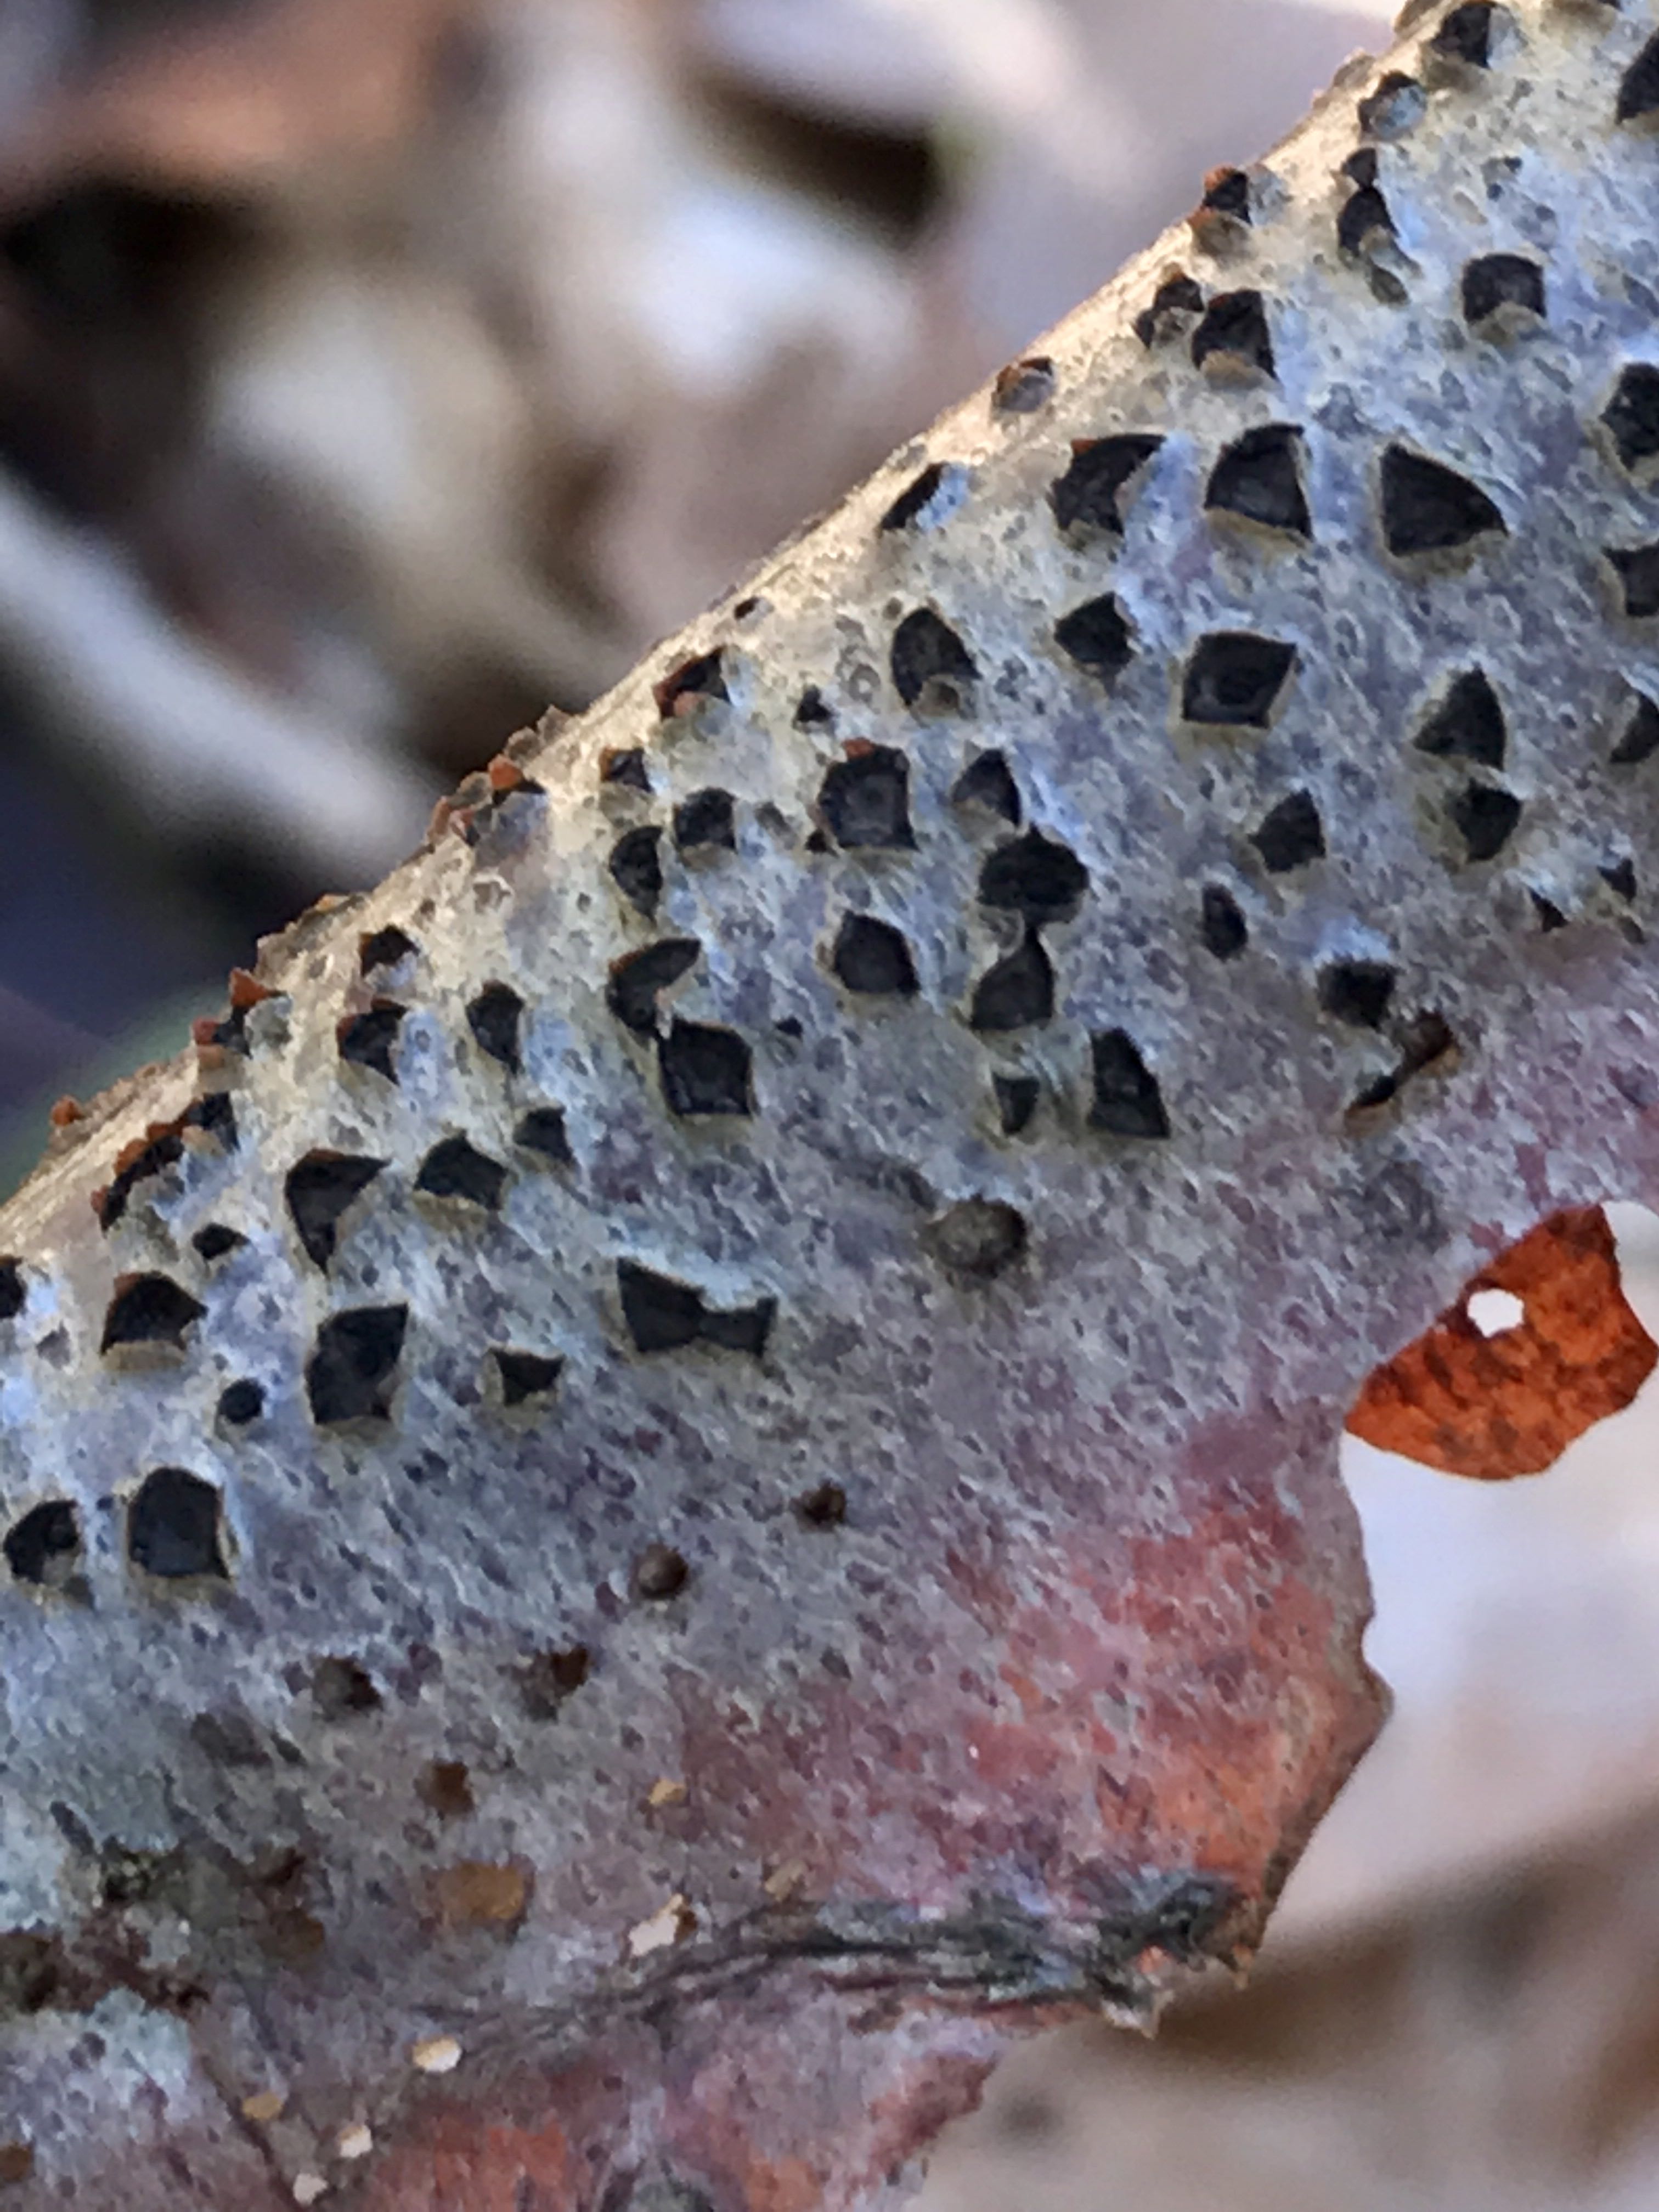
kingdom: Fungi
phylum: Ascomycota
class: Sordariomycetes
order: Xylariales
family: Diatrypaceae
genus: Diatrype
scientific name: Diatrype disciformis
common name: kant-kulskorpe
